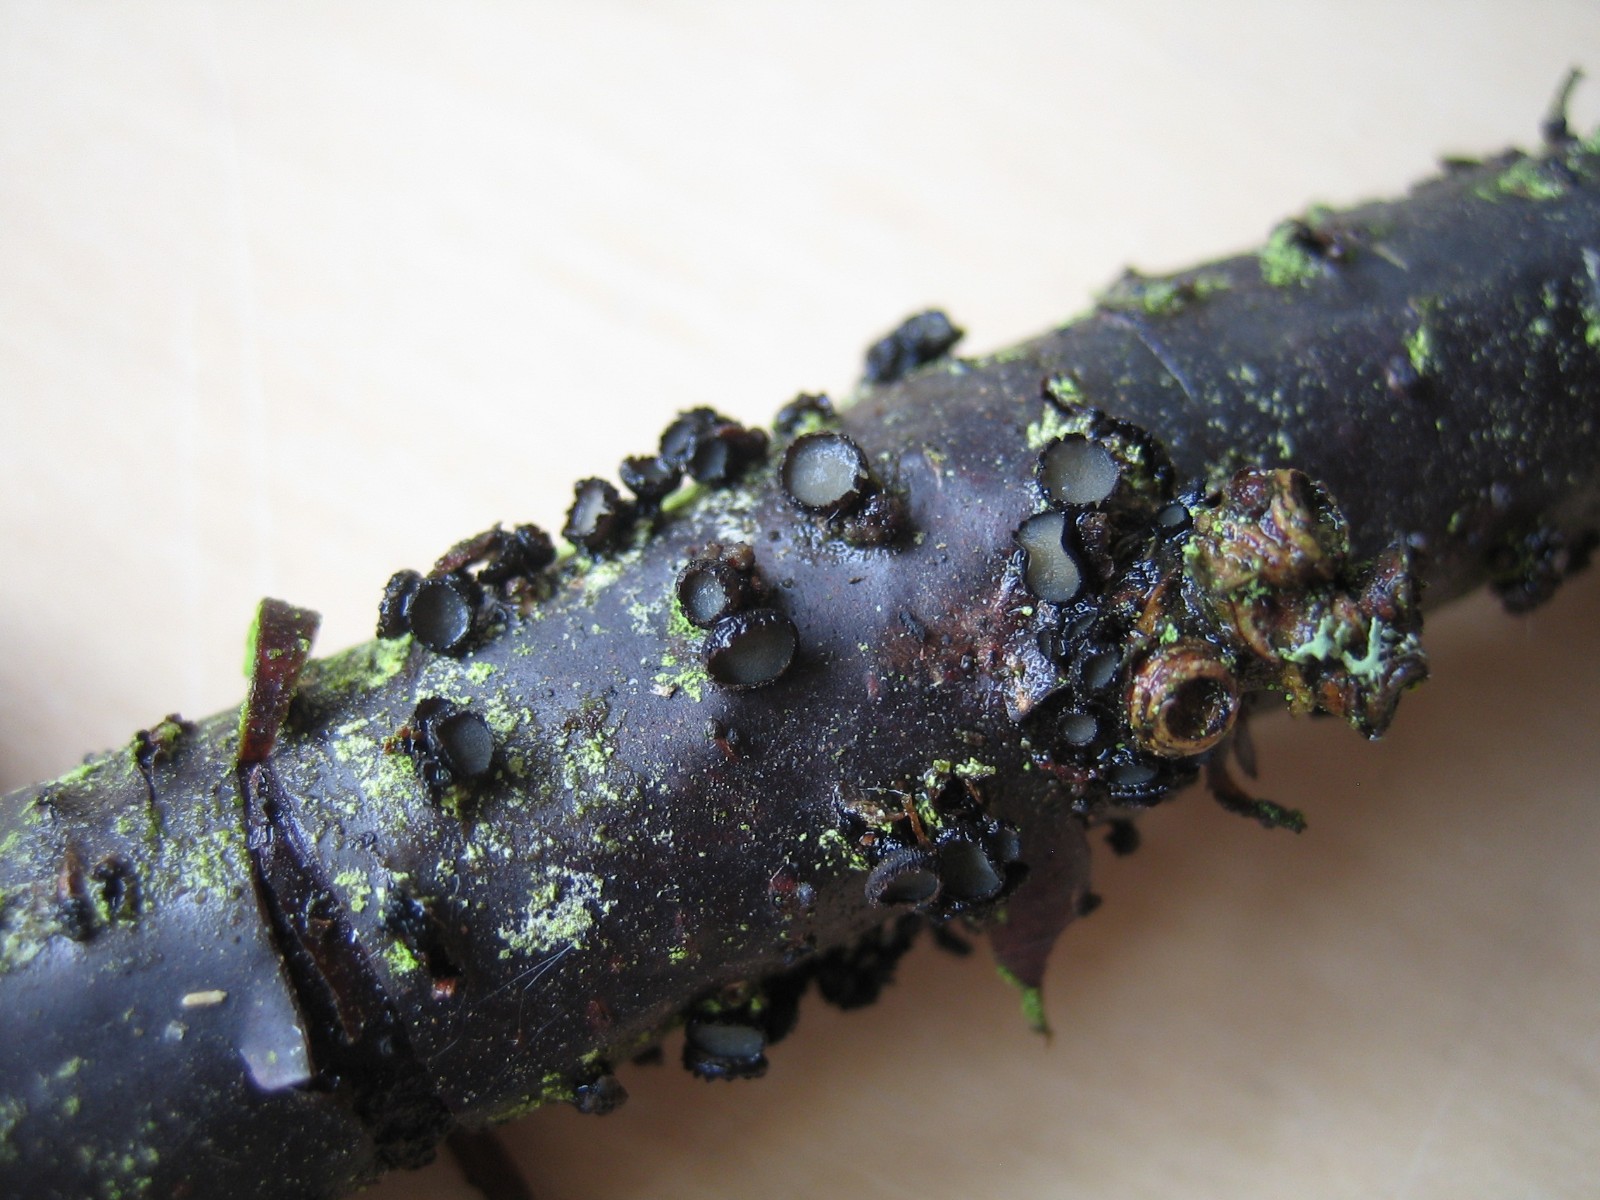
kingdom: Fungi
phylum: Ascomycota
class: Leotiomycetes
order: Helotiales
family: Godroniaceae
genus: Godronia
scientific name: Godronia ribis
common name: ribs-urneskive
